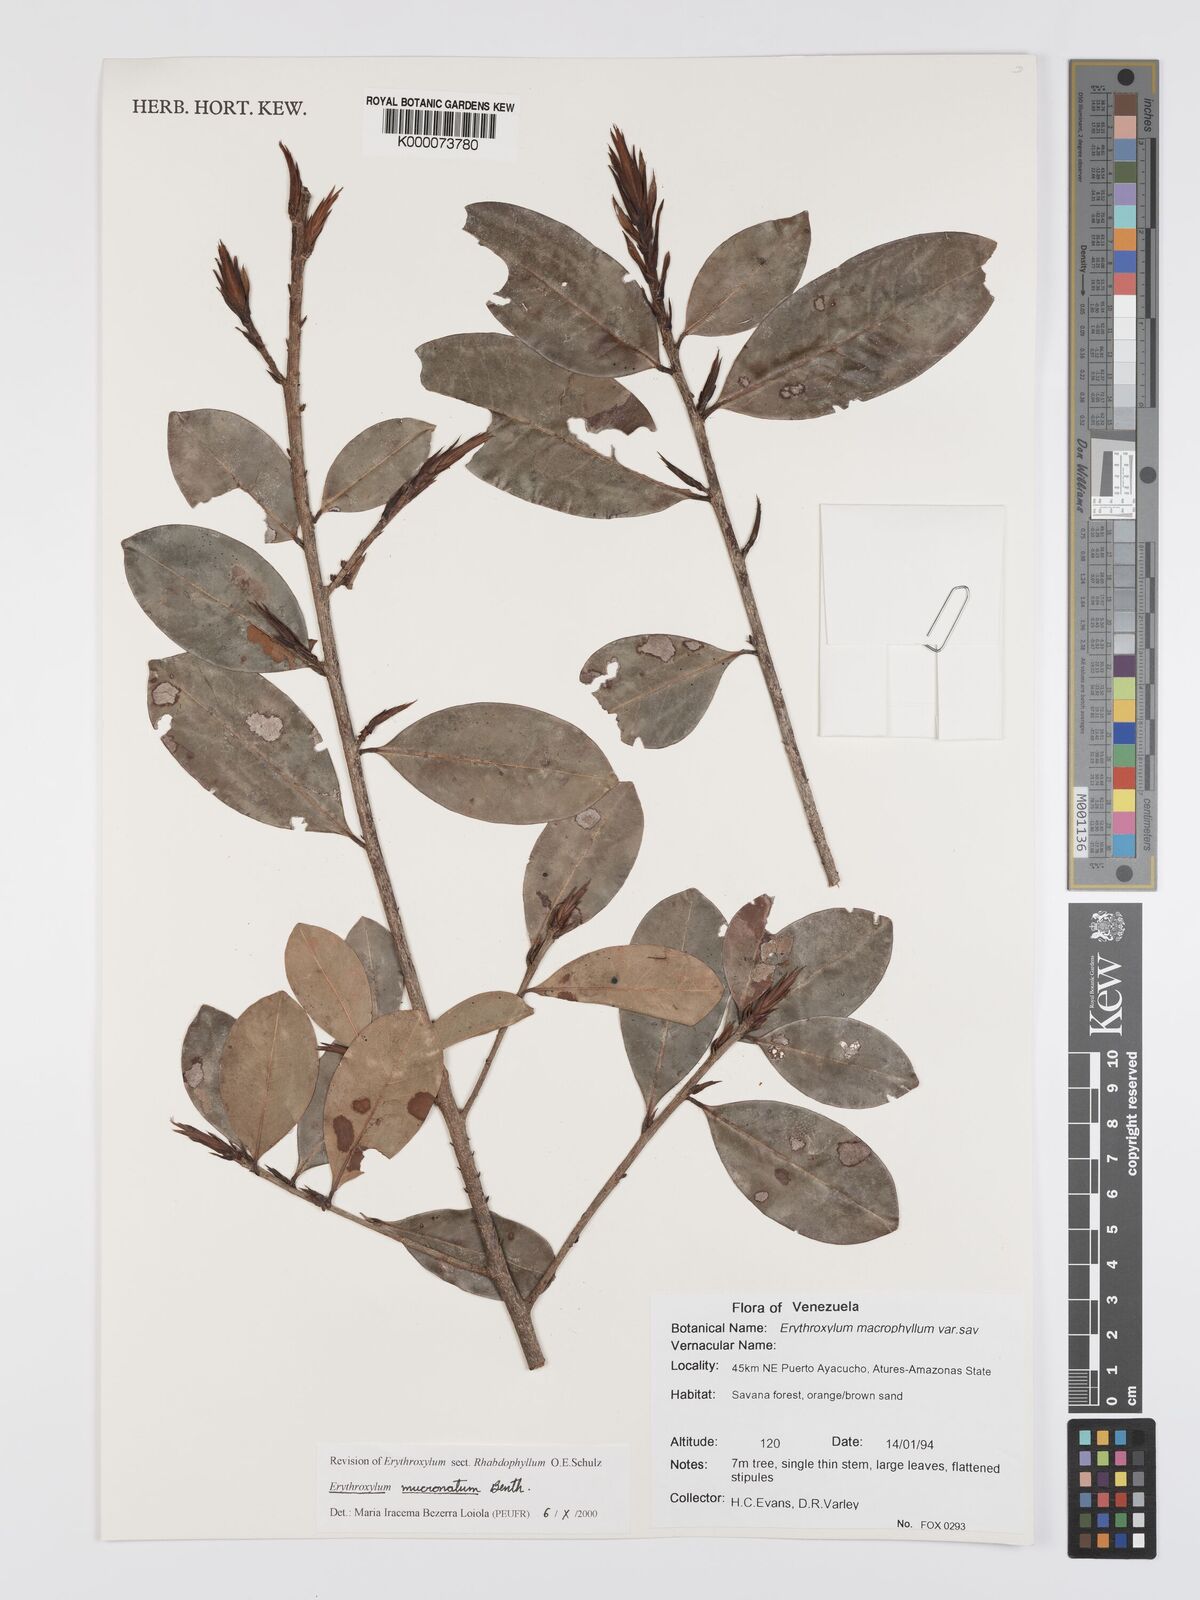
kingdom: Plantae
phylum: Tracheophyta
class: Magnoliopsida
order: Malpighiales
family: Erythroxylaceae
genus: Erythroxylum
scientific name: Erythroxylum mucronatum
